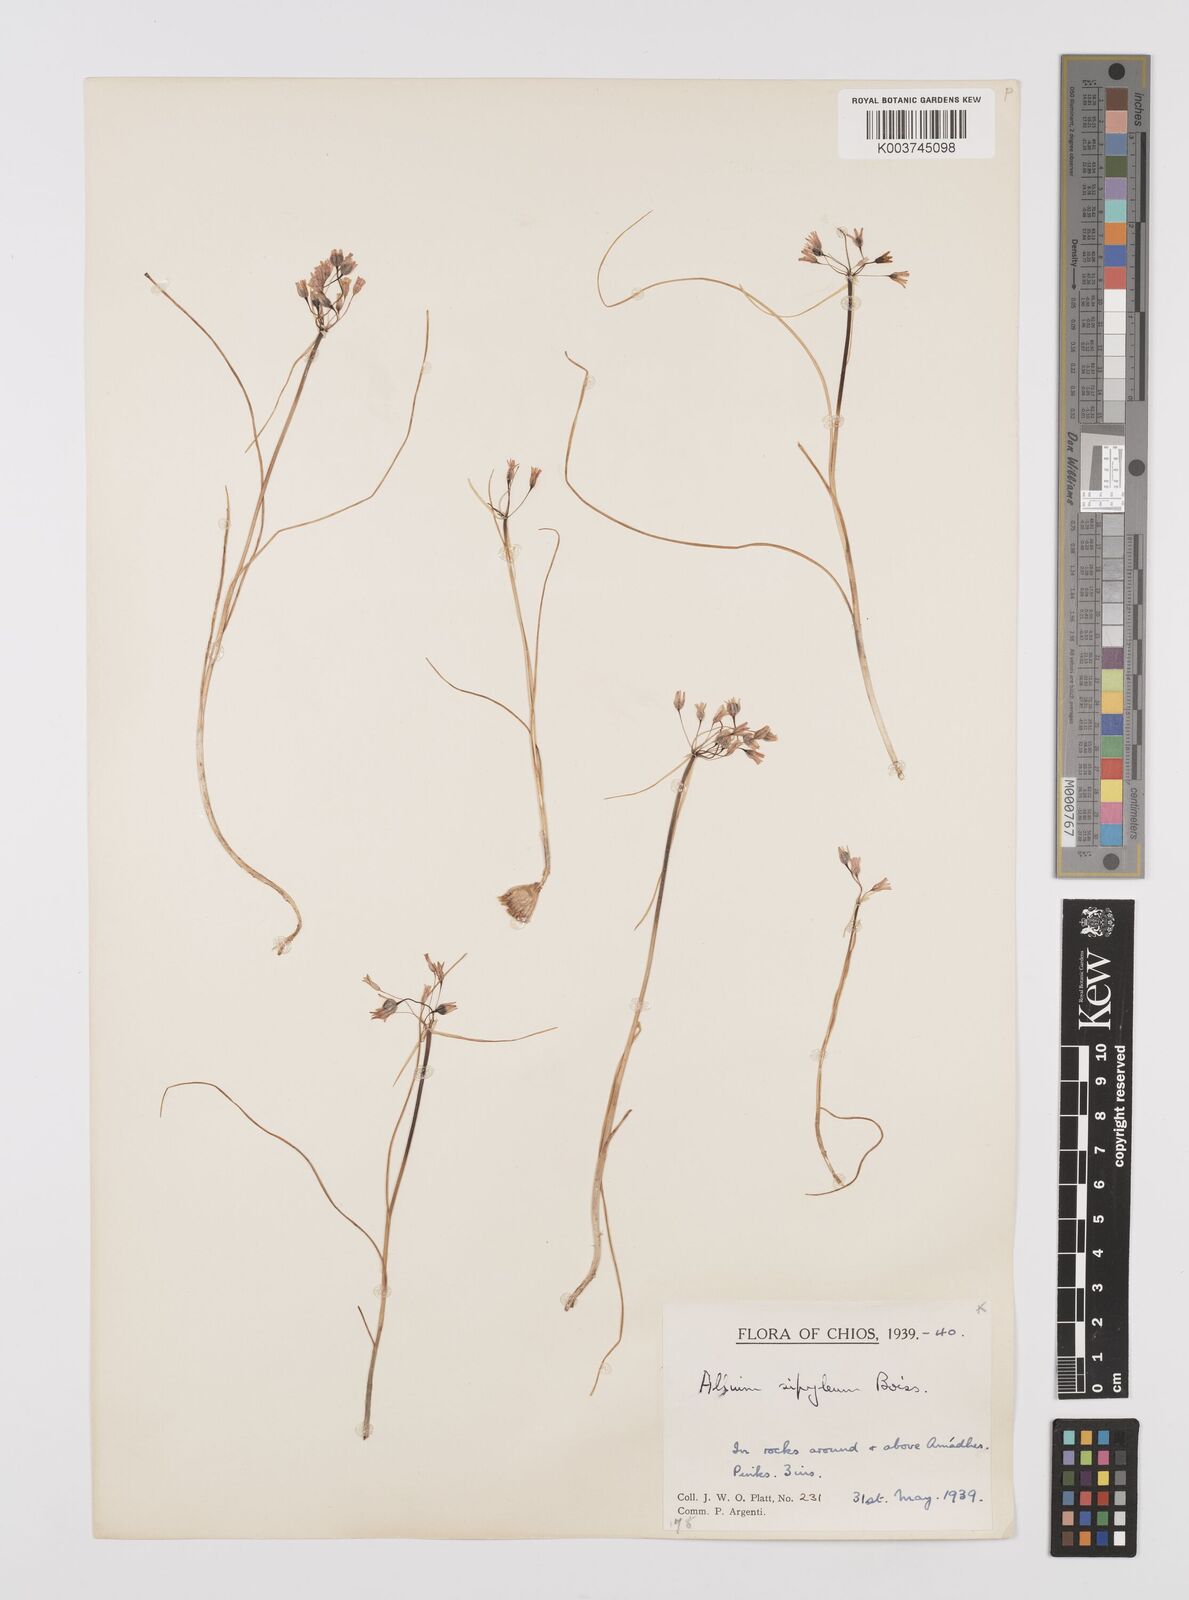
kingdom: Plantae
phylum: Tracheophyta
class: Liliopsida
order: Asparagales
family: Amaryllidaceae
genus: Allium
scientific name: Allium sipyleum
